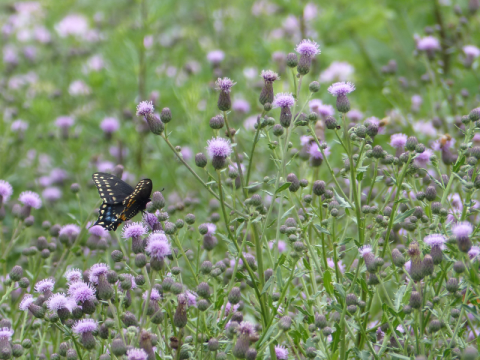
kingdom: Animalia
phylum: Arthropoda
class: Insecta
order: Lepidoptera
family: Papilionidae
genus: Papilio
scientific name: Papilio polyxenes
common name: Black Swallowtail
